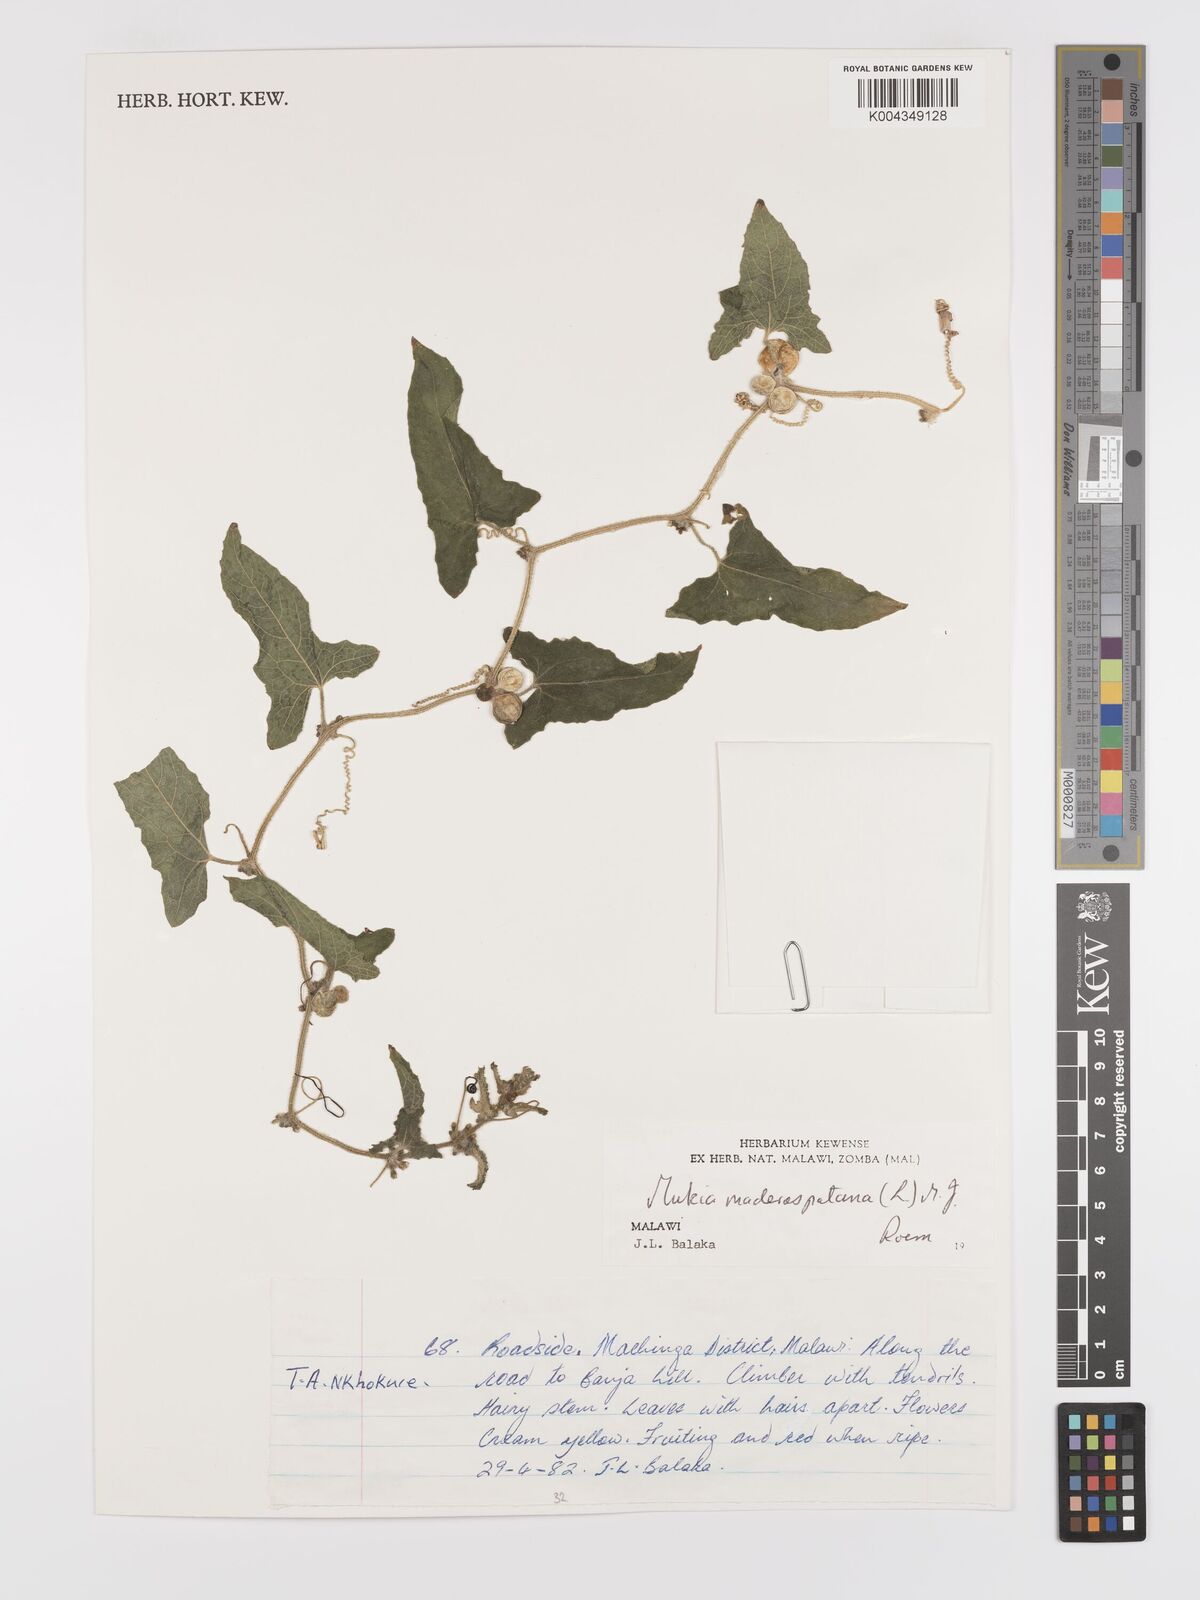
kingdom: Plantae
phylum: Tracheophyta
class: Magnoliopsida
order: Cucurbitales
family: Cucurbitaceae
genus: Cucumis
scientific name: Cucumis maderaspatanus
